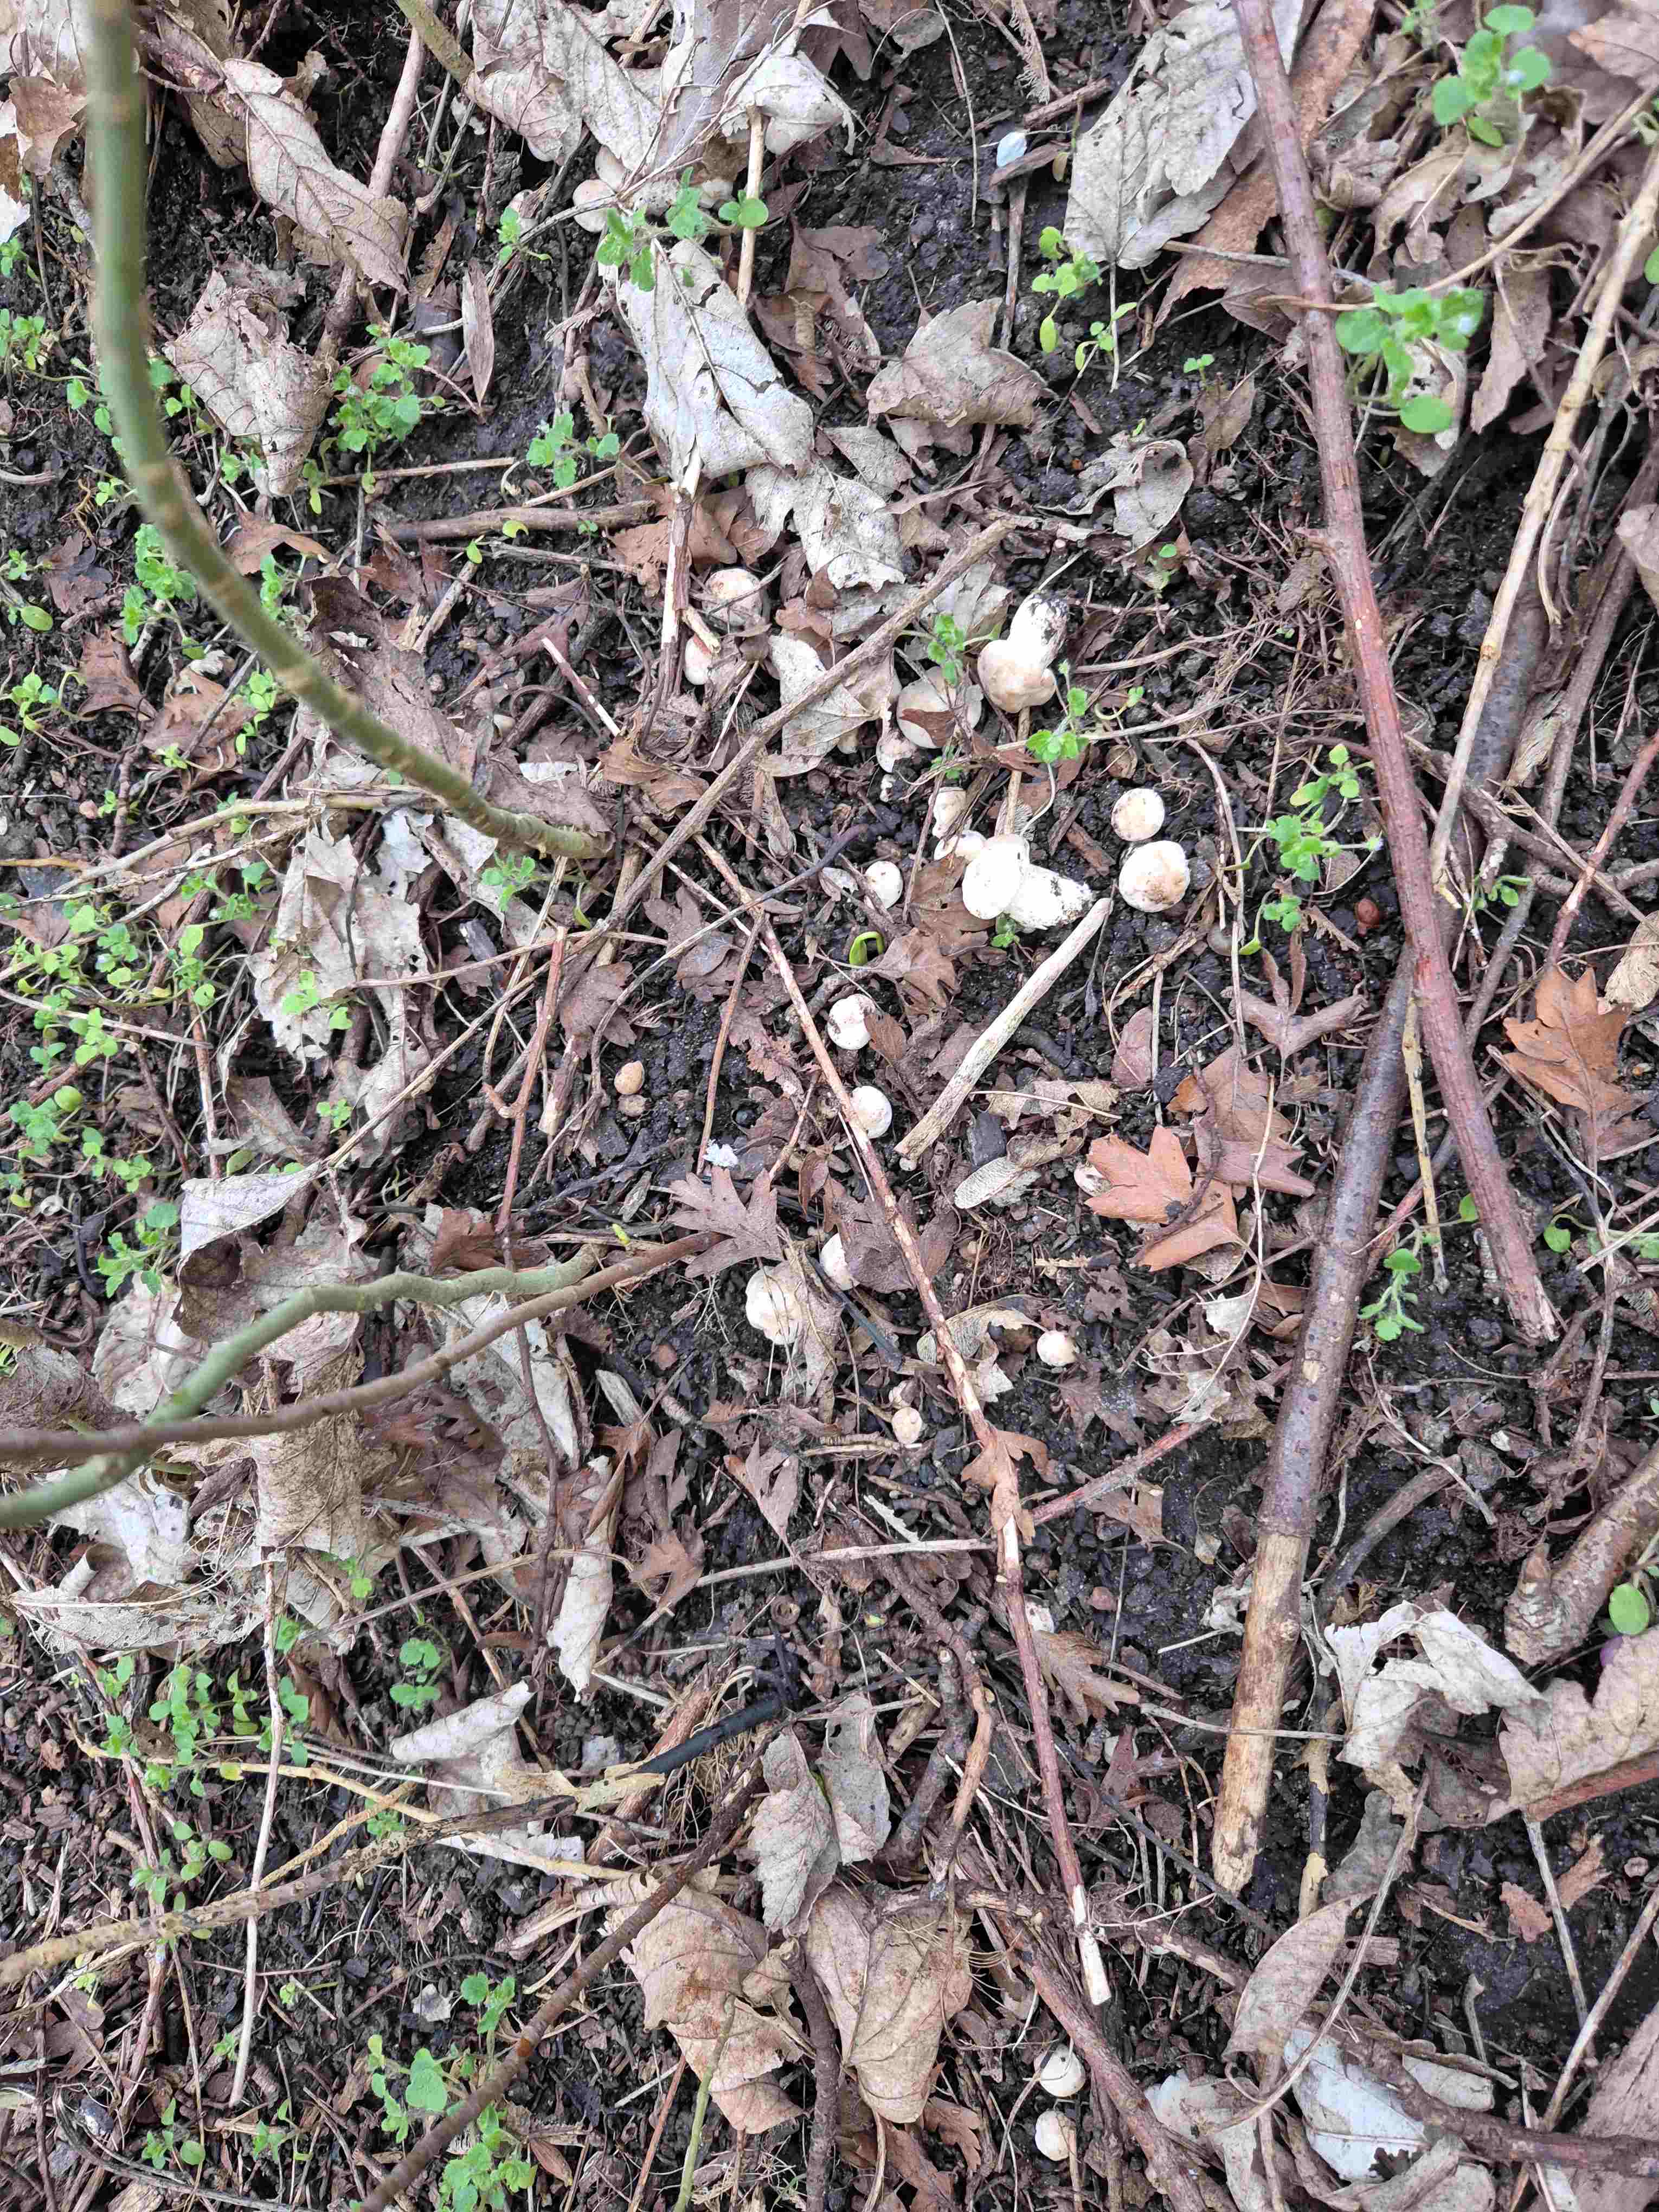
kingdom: Fungi
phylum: Basidiomycota
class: Agaricomycetes
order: Agaricales
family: Lyophyllaceae
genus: Calocybe
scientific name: Calocybe gambosa
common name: vårmusseron
